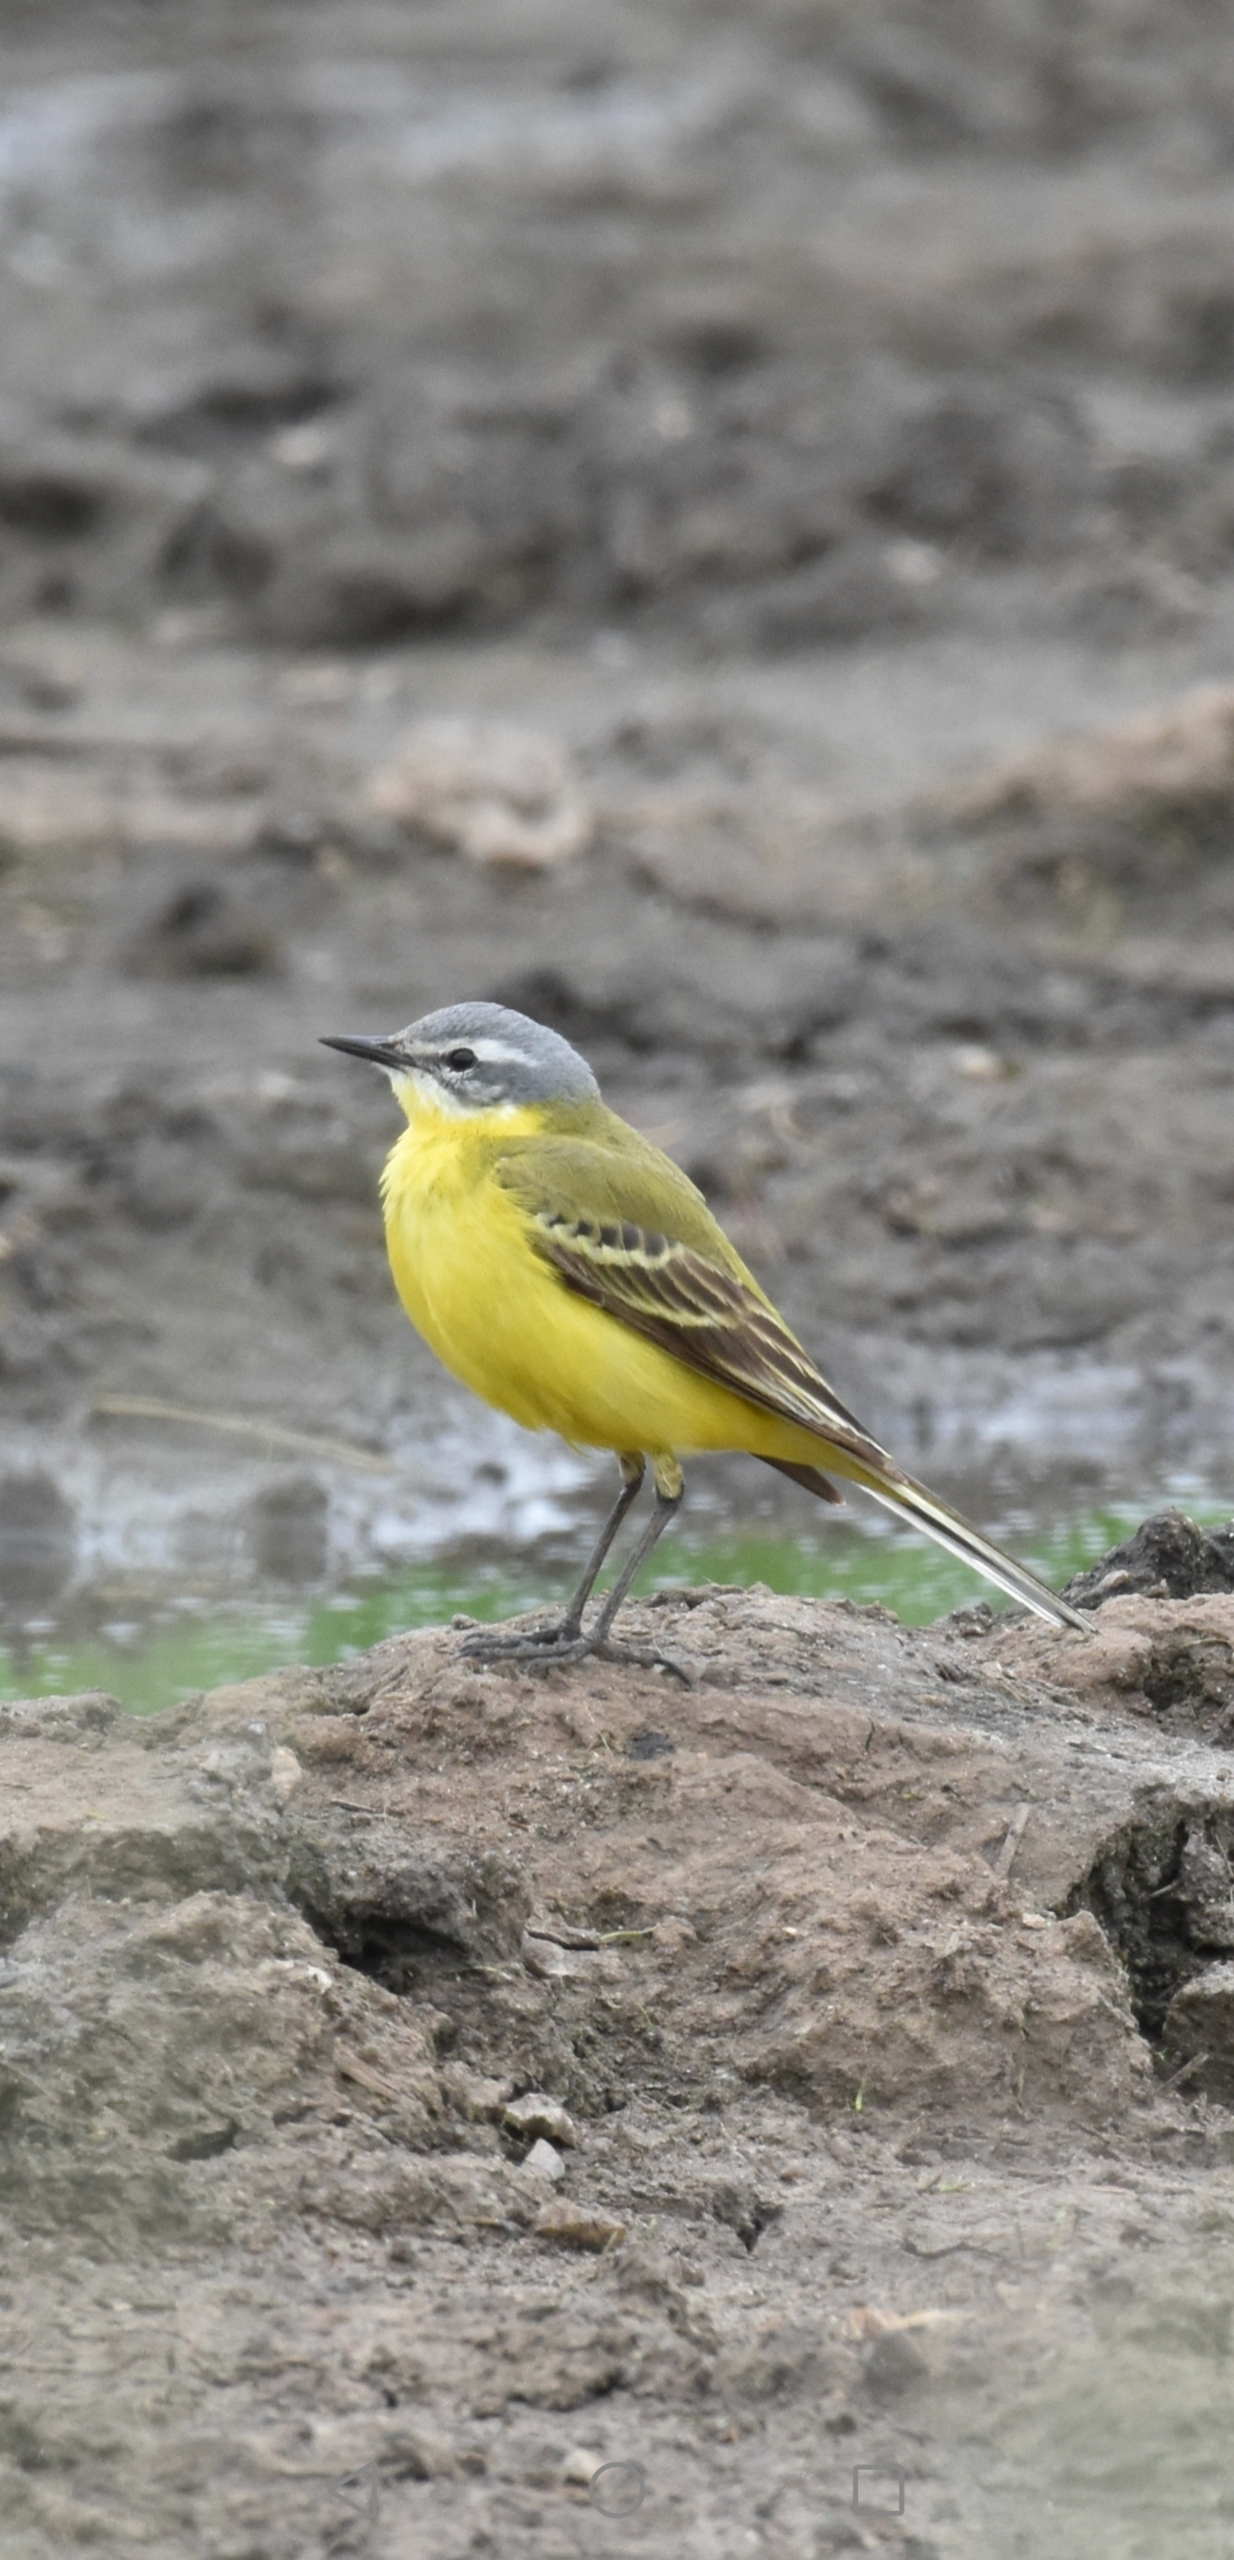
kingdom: Animalia
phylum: Chordata
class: Aves
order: Passeriformes
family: Motacillidae
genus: Motacilla
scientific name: Motacilla flava
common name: Gul vipstjert
